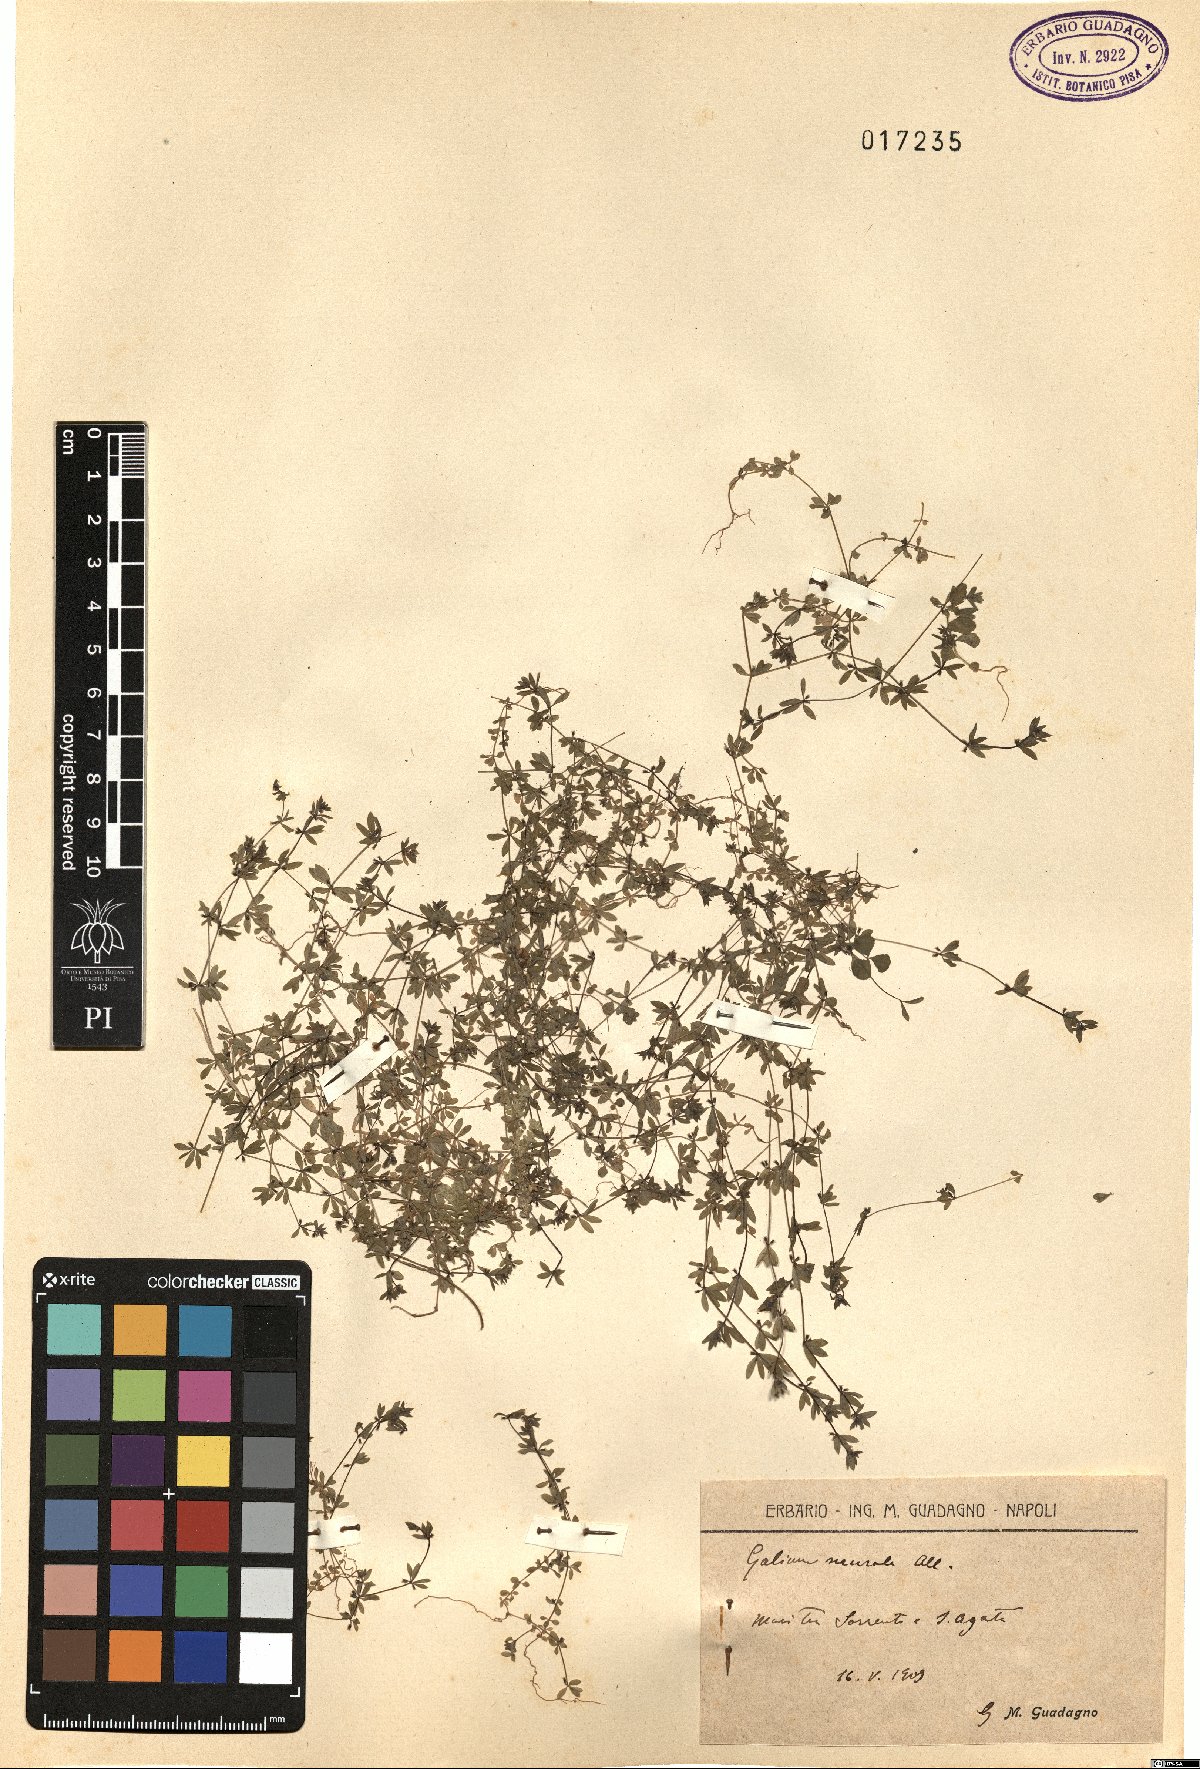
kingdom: Plantae
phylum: Tracheophyta
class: Magnoliopsida
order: Gentianales
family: Rubiaceae
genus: Galium
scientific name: Galium murale
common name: Yellow wall bedstraw
